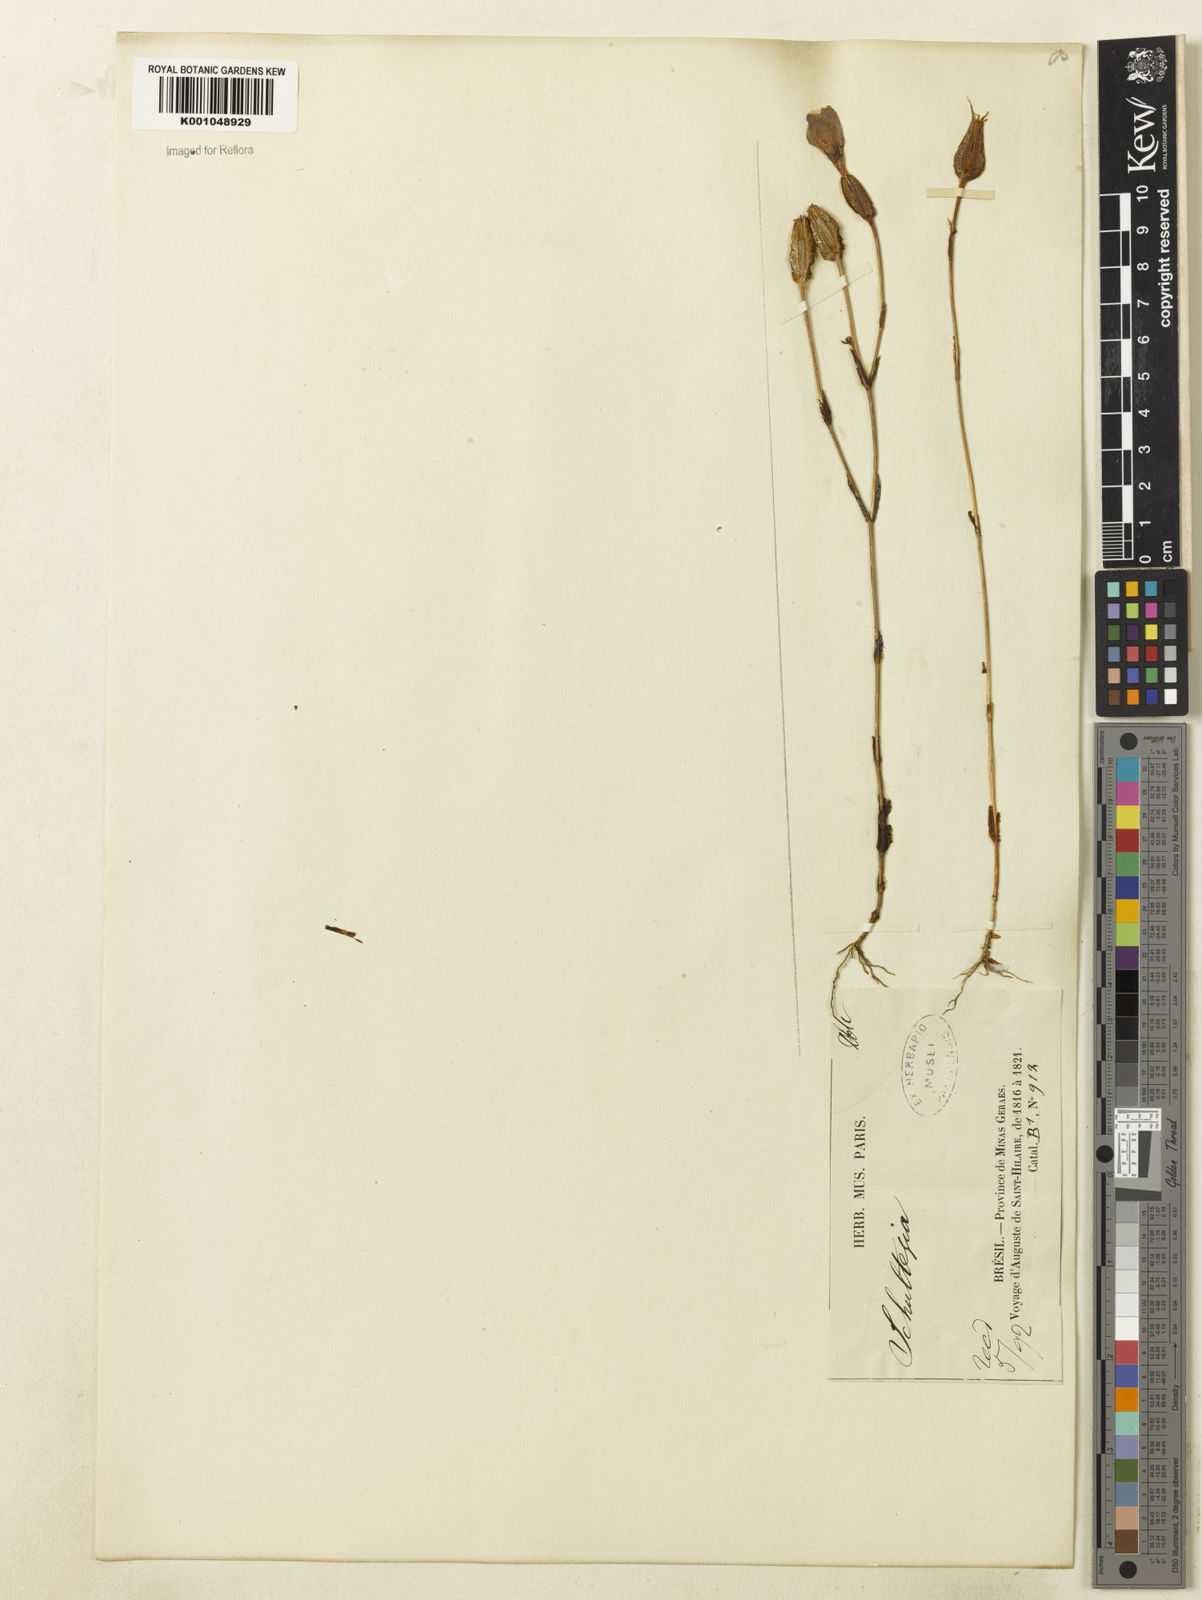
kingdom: Plantae
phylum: Tracheophyta
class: Magnoliopsida
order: Gentianales
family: Gentianaceae
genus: Schultesia
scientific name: Schultesia
